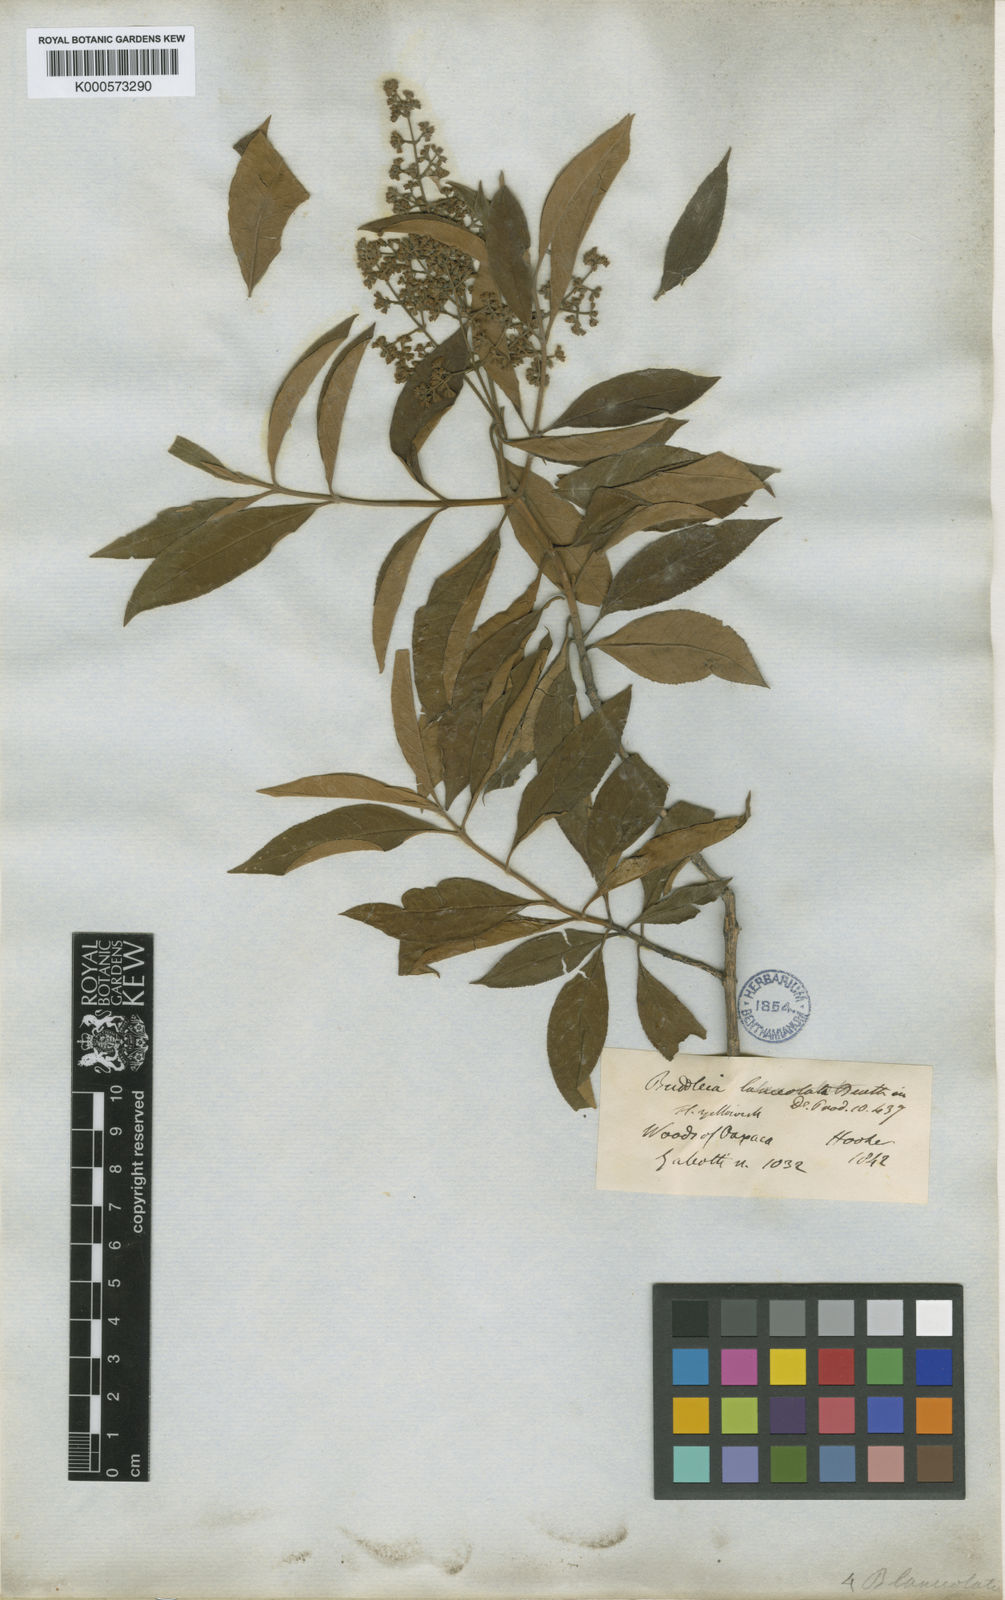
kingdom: Plantae
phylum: Tracheophyta
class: Magnoliopsida
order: Lamiales
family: Scrophulariaceae
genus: Buddleja
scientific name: Buddleja parviflora
